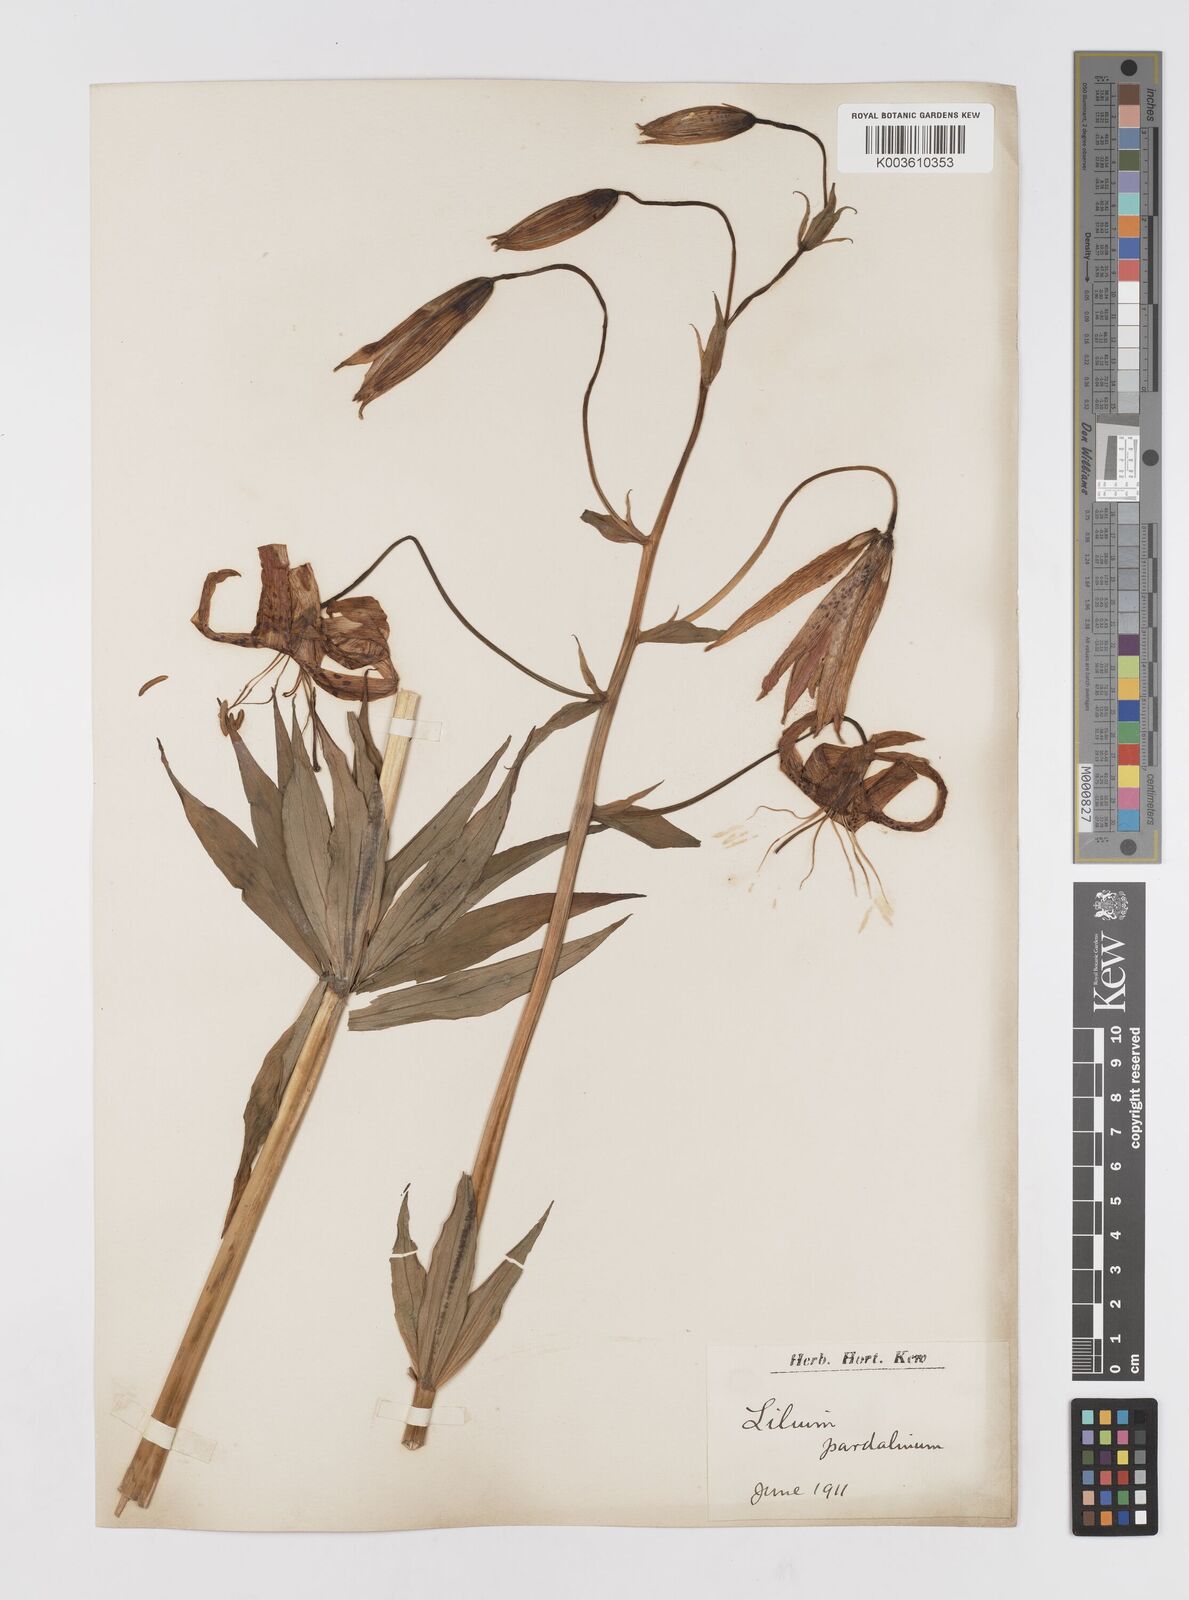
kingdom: Plantae
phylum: Tracheophyta
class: Liliopsida
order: Liliales
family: Liliaceae
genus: Lilium
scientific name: Lilium pardalinum
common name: Panther lily
